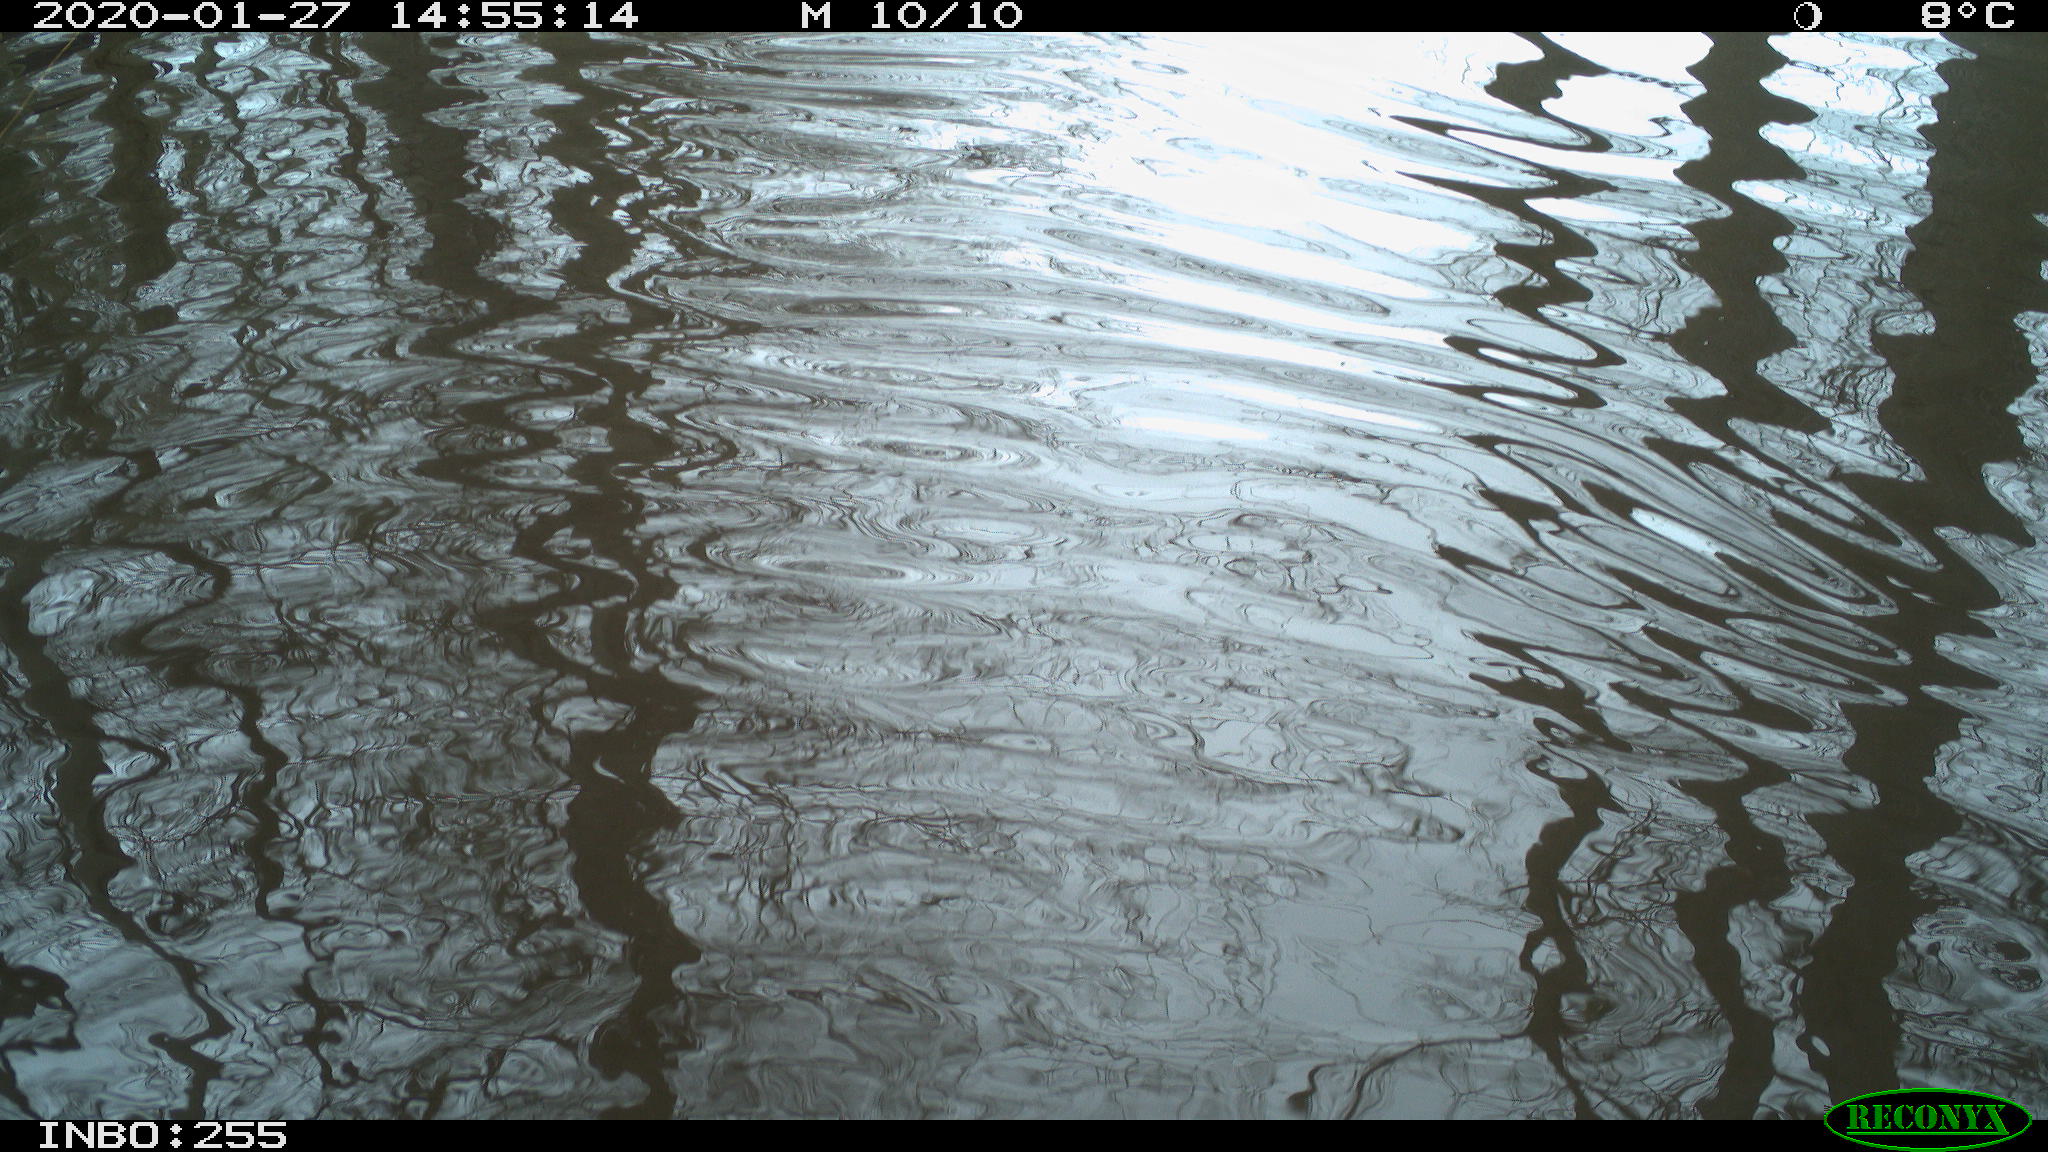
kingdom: Animalia
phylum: Chordata
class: Aves
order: Gruiformes
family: Rallidae
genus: Gallinula
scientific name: Gallinula chloropus
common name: Common moorhen
